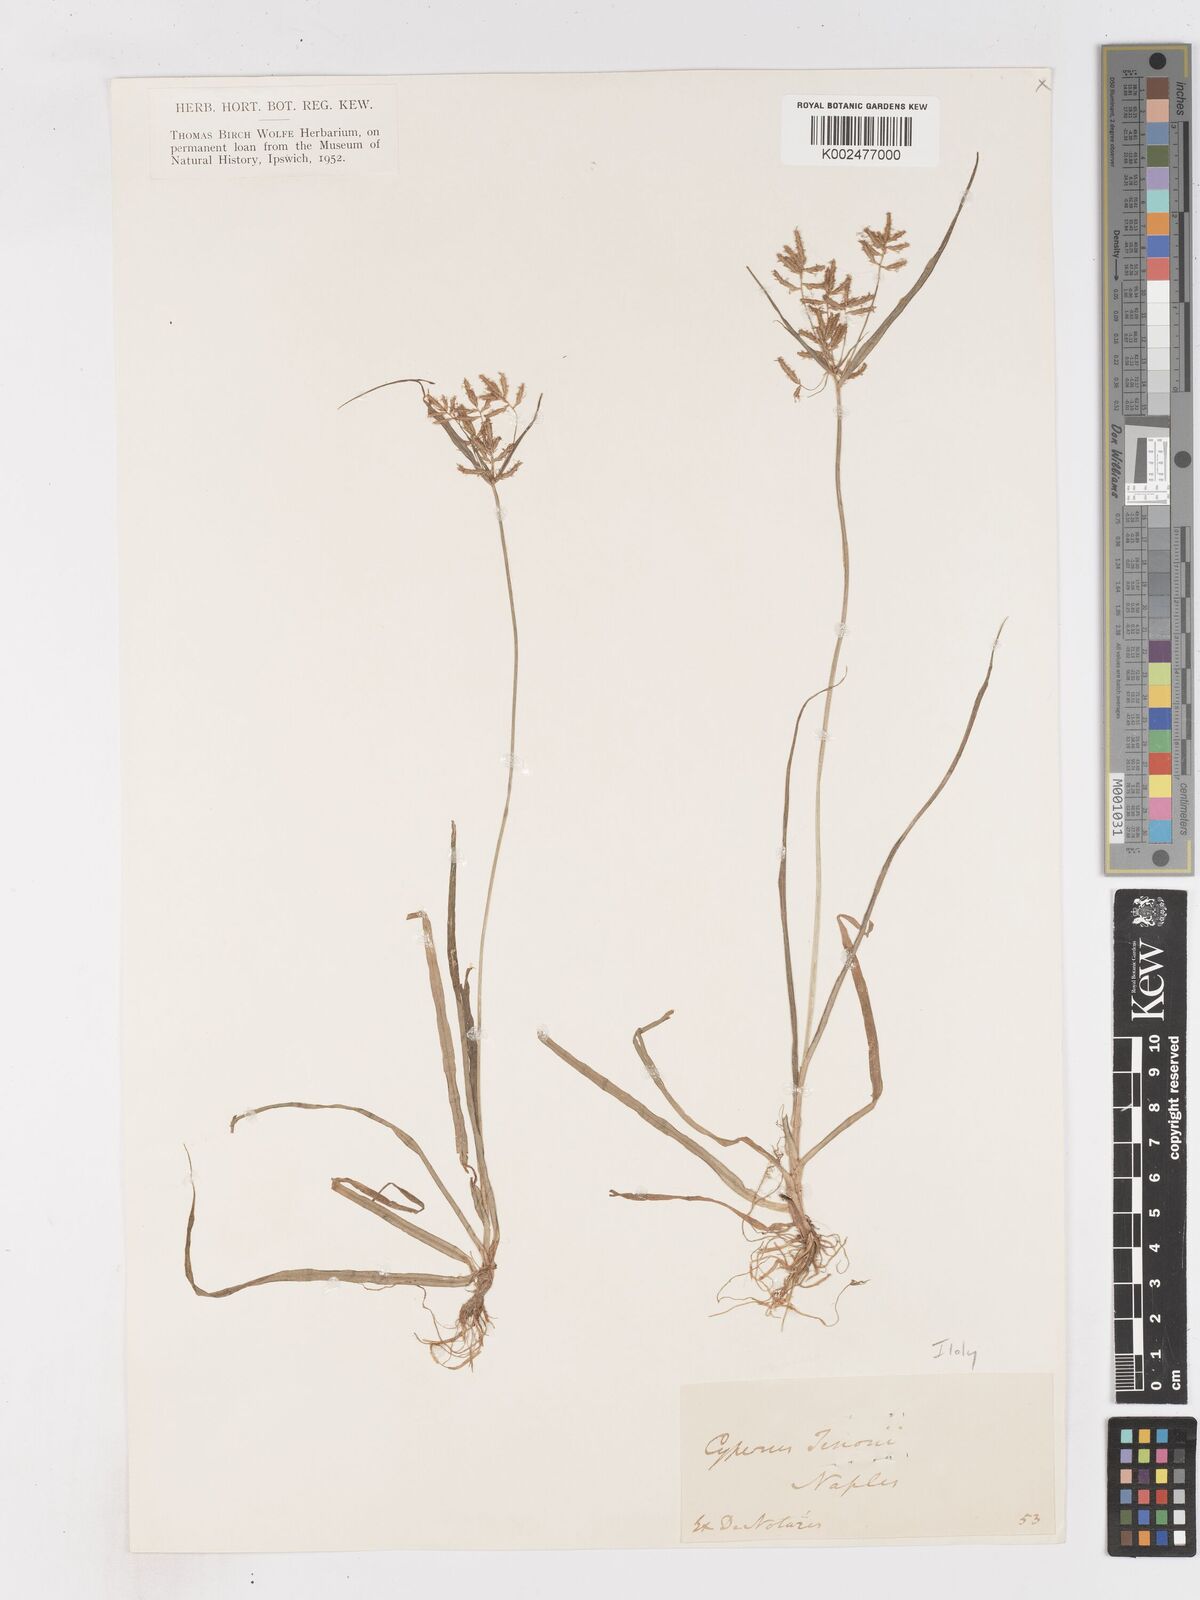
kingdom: Plantae
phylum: Tracheophyta
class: Liliopsida
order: Poales
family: Cyperaceae
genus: Cyperus
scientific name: Cyperus esculentus
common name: Yellow nutsedge
